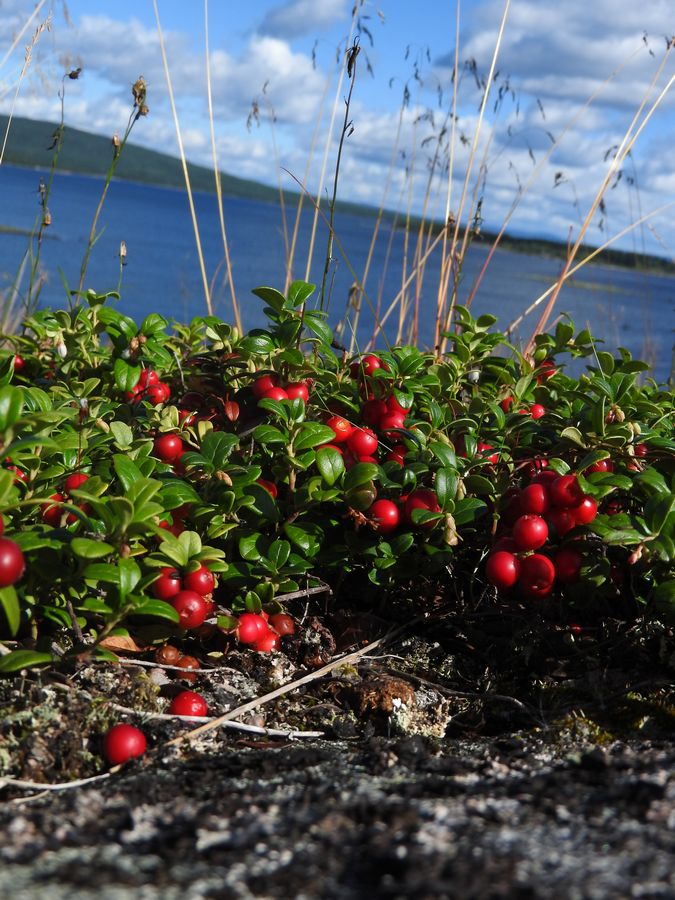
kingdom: Plantae
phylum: Tracheophyta
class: Magnoliopsida
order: Ericales
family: Ericaceae
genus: Vaccinium
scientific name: Vaccinium vitis-idaea
